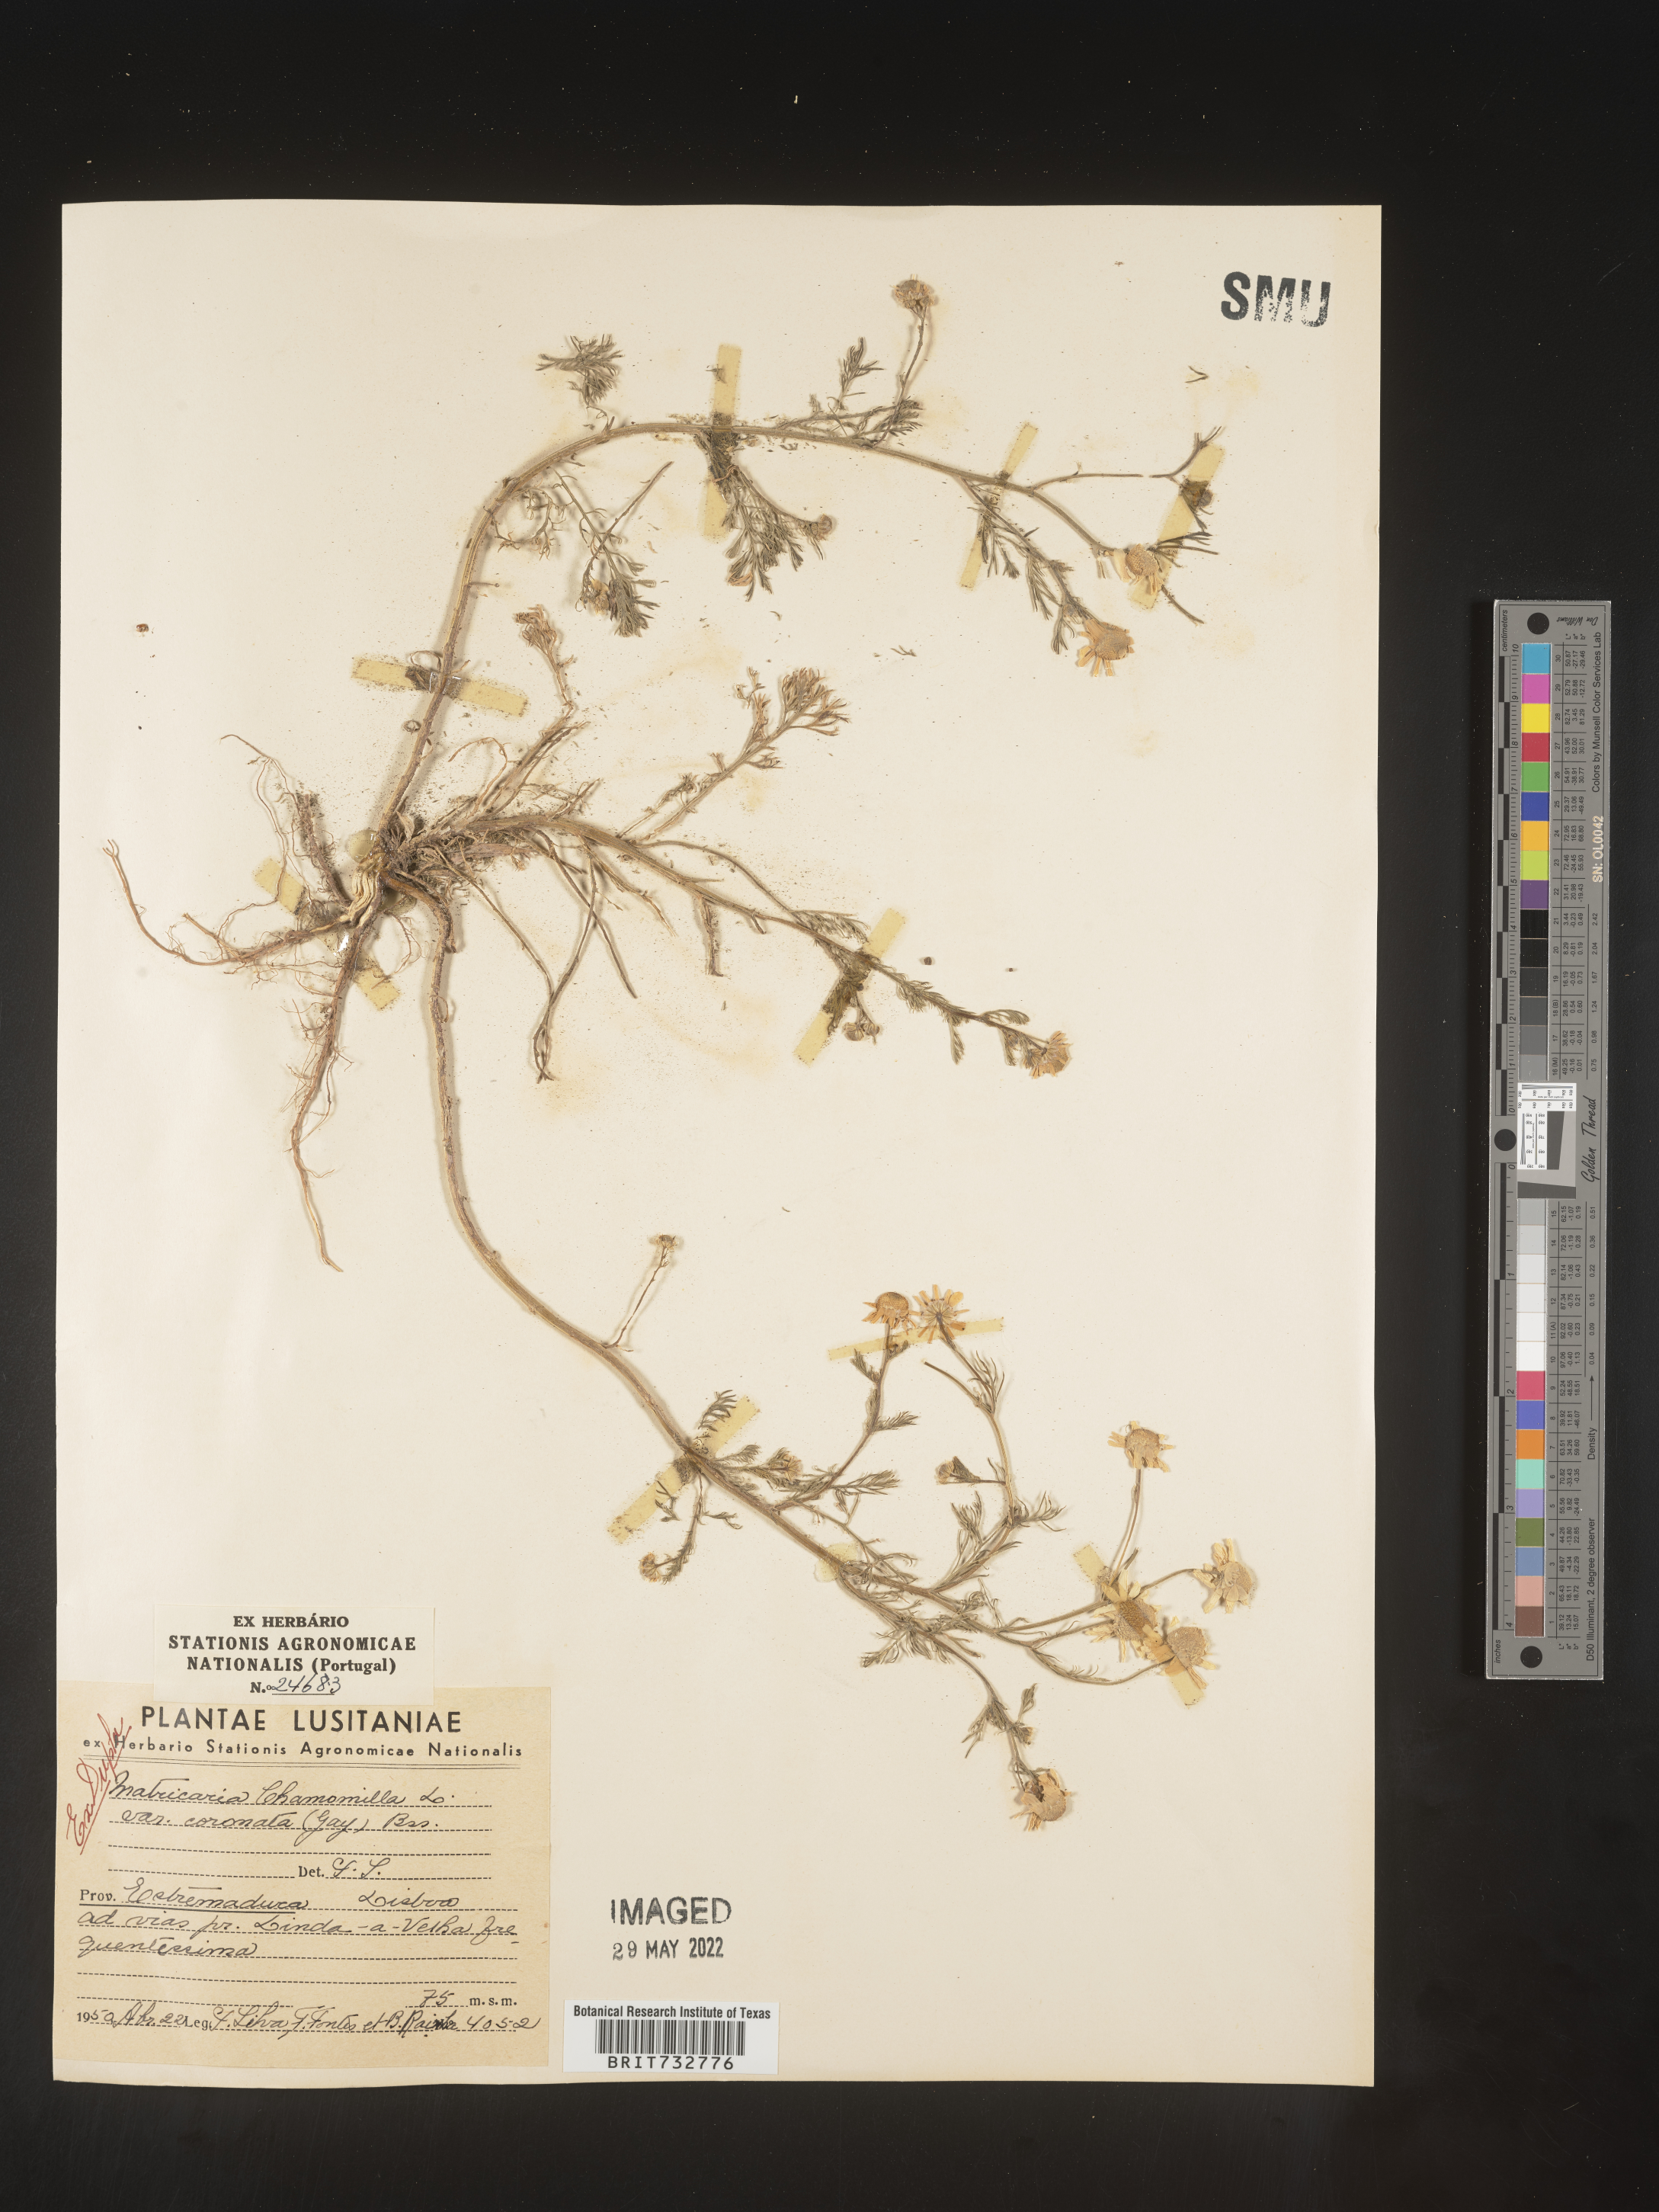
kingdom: Plantae
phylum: Tracheophyta
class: Magnoliopsida
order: Asterales
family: Asteraceae
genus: Matricaria
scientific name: Matricaria
